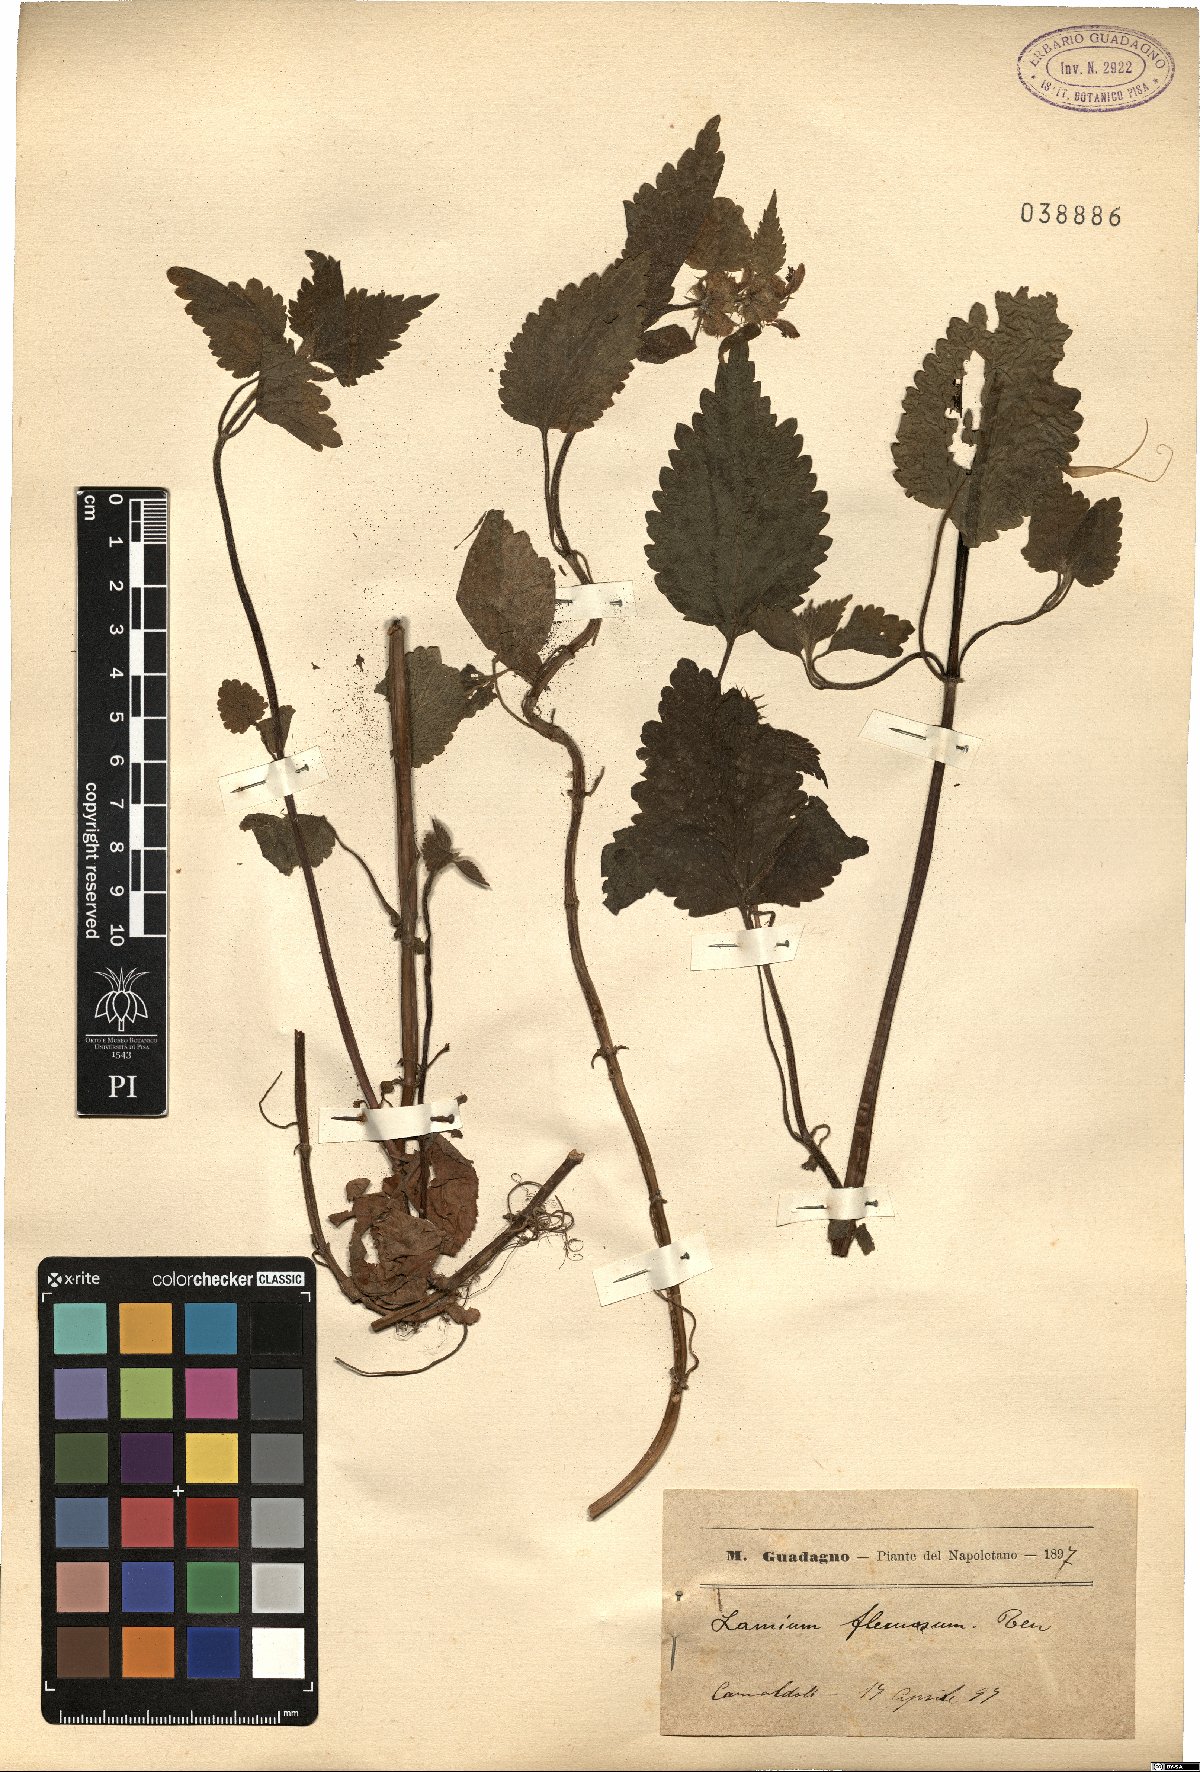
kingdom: Plantae
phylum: Tracheophyta
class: Magnoliopsida
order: Lamiales
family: Lamiaceae
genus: Lamium
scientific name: Lamium flexuosum
